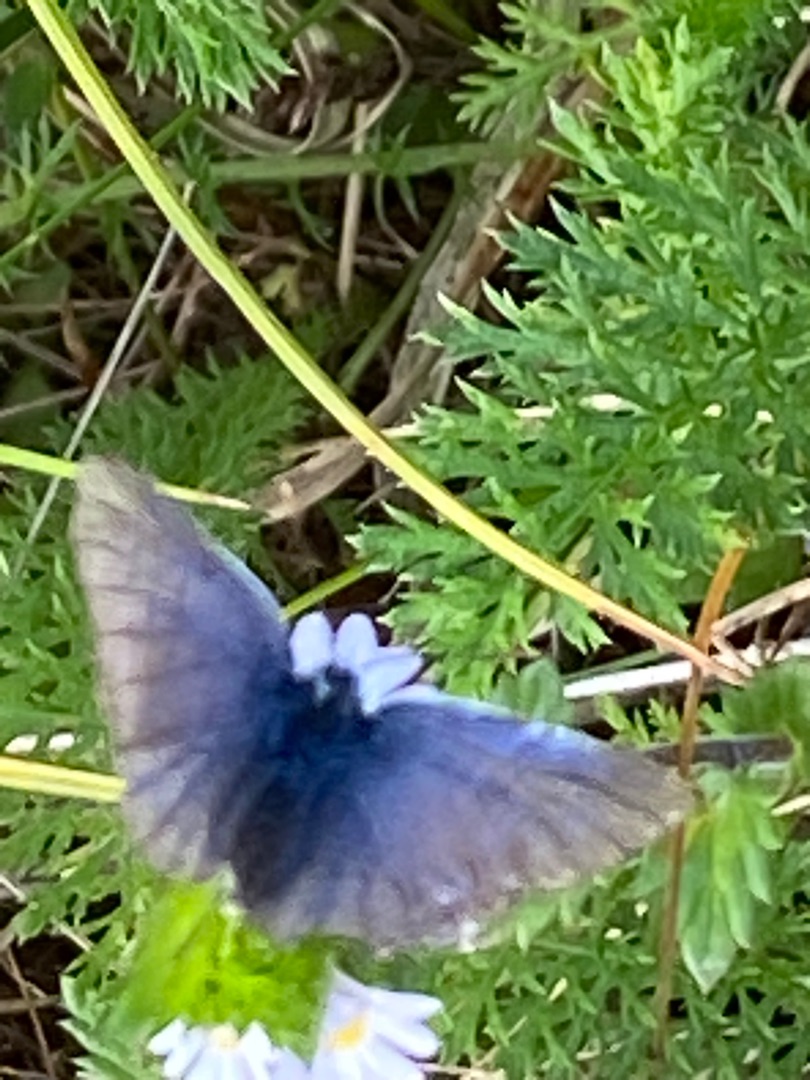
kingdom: Animalia
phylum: Arthropoda
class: Insecta
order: Lepidoptera
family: Lycaenidae
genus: Polyommatus
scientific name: Polyommatus icarus
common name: Almindelig blåfugl
